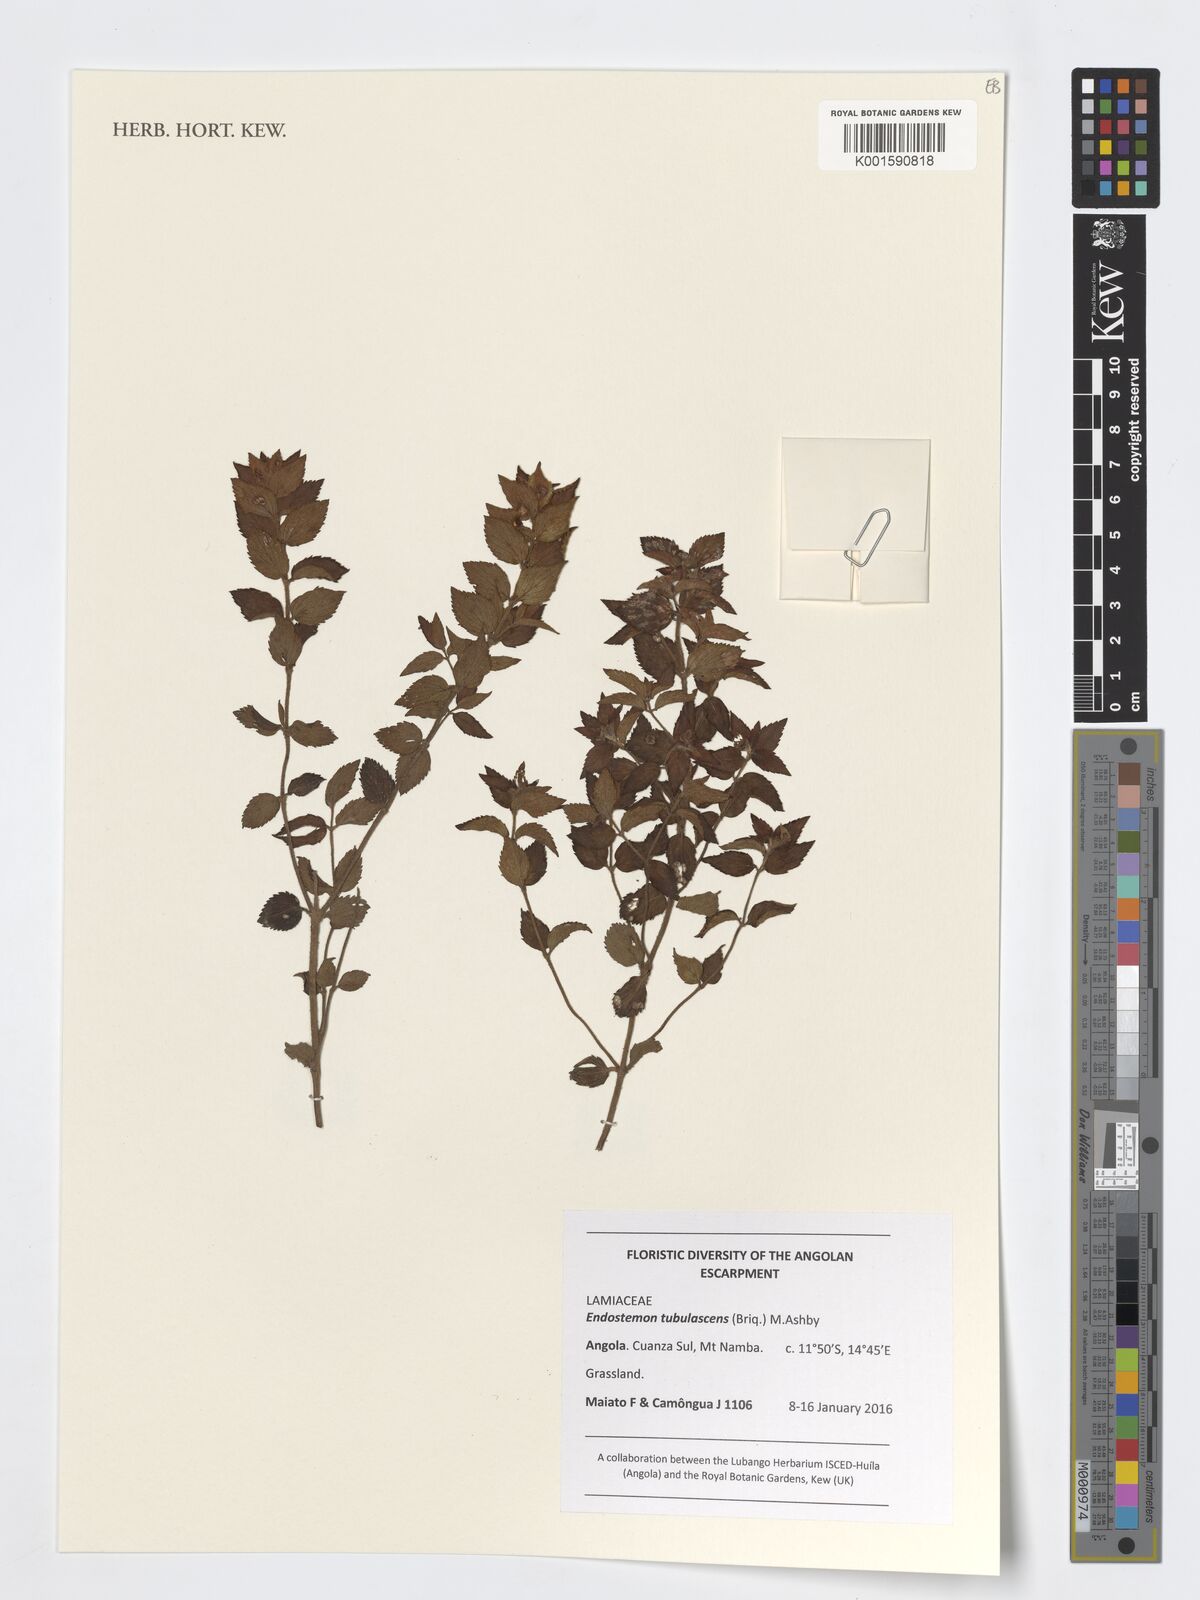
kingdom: Plantae
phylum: Tracheophyta
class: Magnoliopsida
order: Lamiales
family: Lamiaceae
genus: Endostemon
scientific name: Endostemon tubulascens
